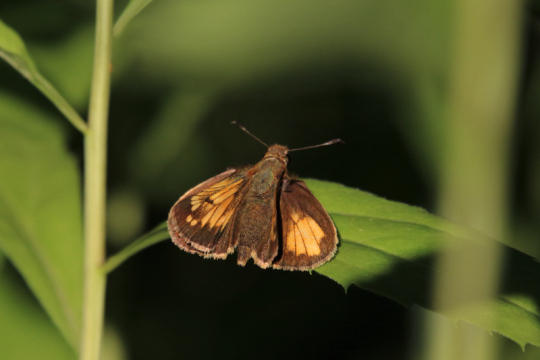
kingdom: Animalia
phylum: Arthropoda
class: Insecta
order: Lepidoptera
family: Hesperiidae
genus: Lon
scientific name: Lon hobomok
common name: Hobomok Skipper
